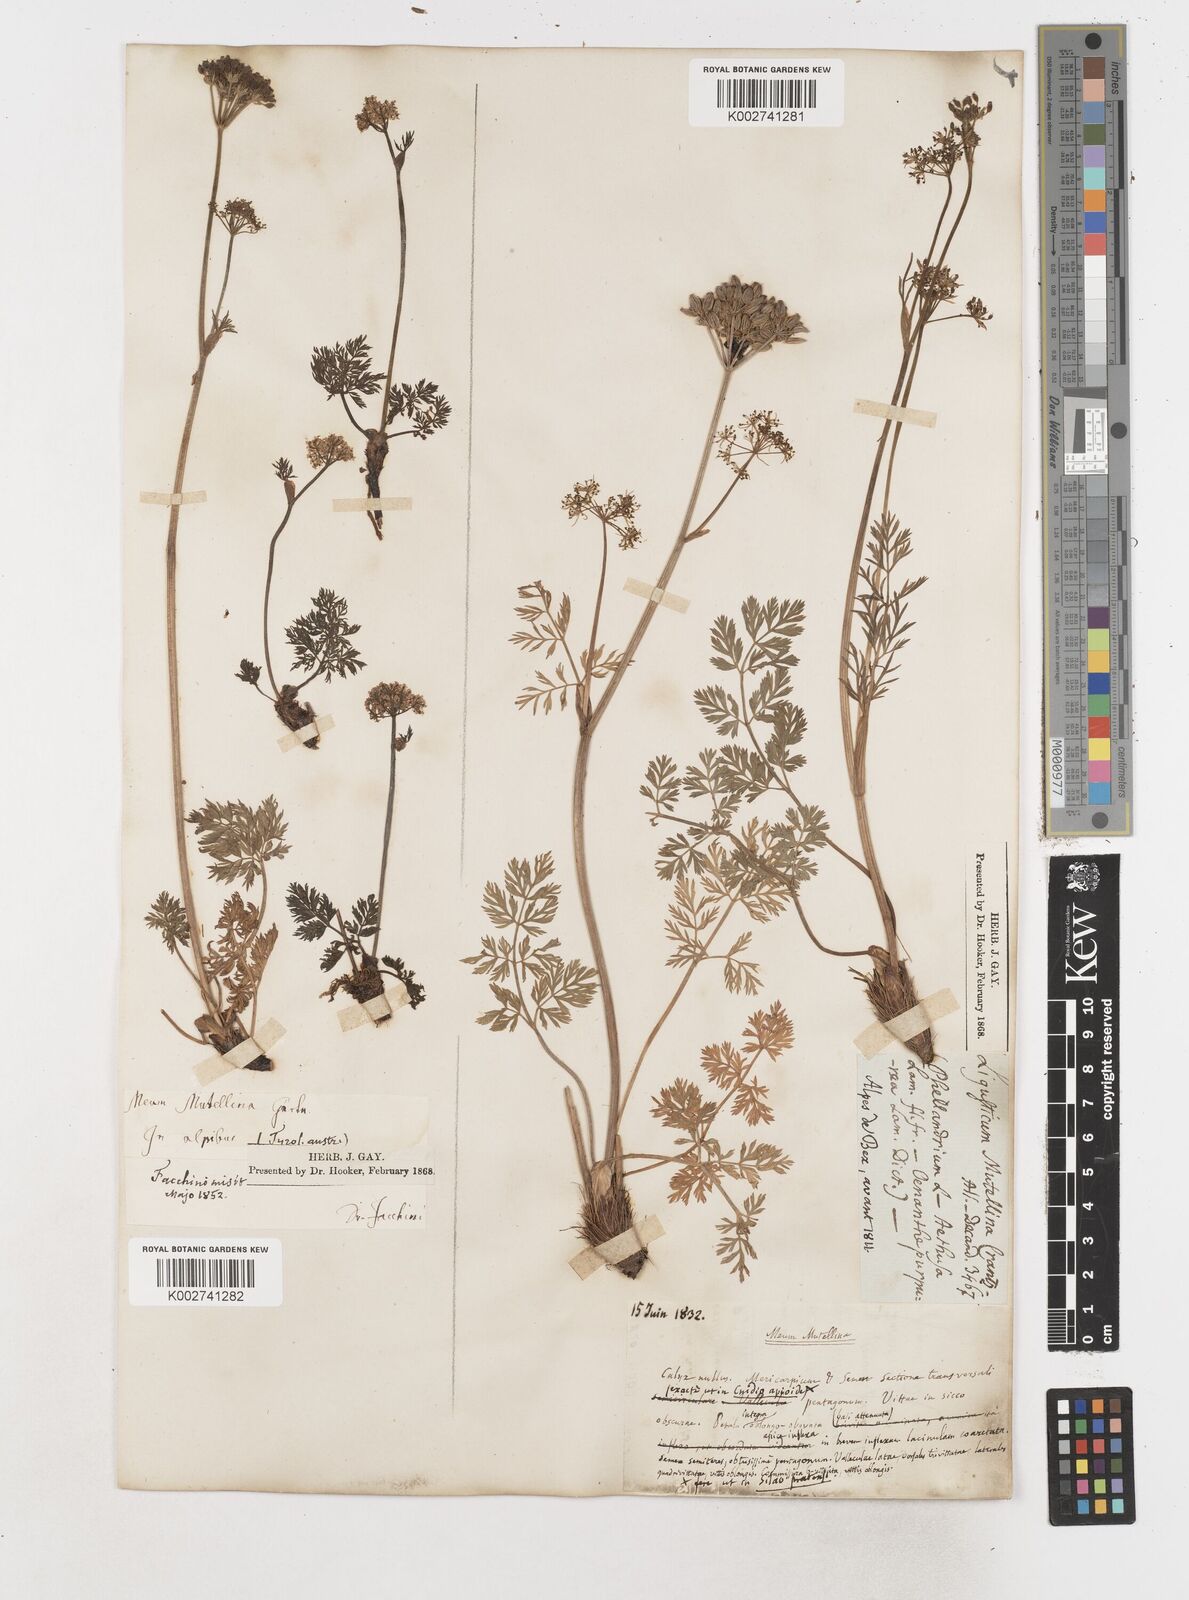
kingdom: Plantae
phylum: Tracheophyta
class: Magnoliopsida
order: Apiales
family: Apiaceae
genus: Mutellina
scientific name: Mutellina adonidifolia
